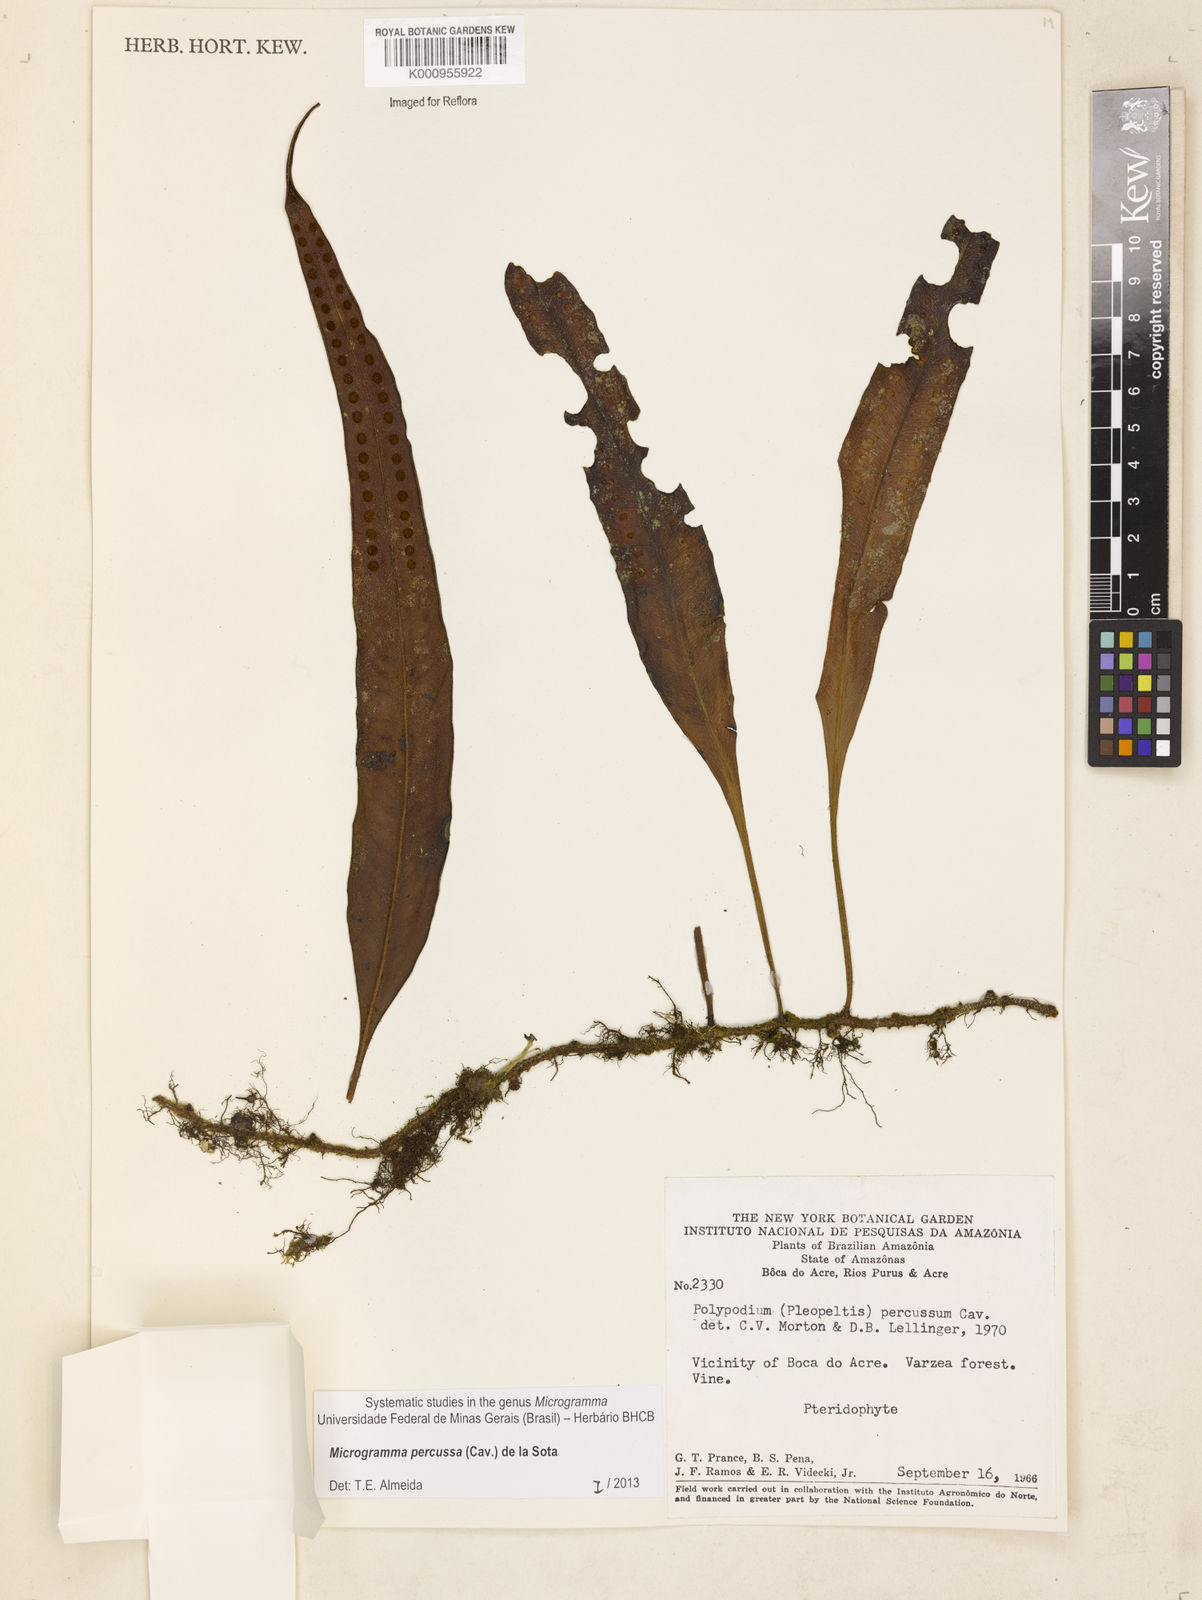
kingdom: Plantae
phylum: Tracheophyta
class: Polypodiopsida
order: Polypodiales
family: Polypodiaceae
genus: Microgramma
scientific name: Microgramma percussa
